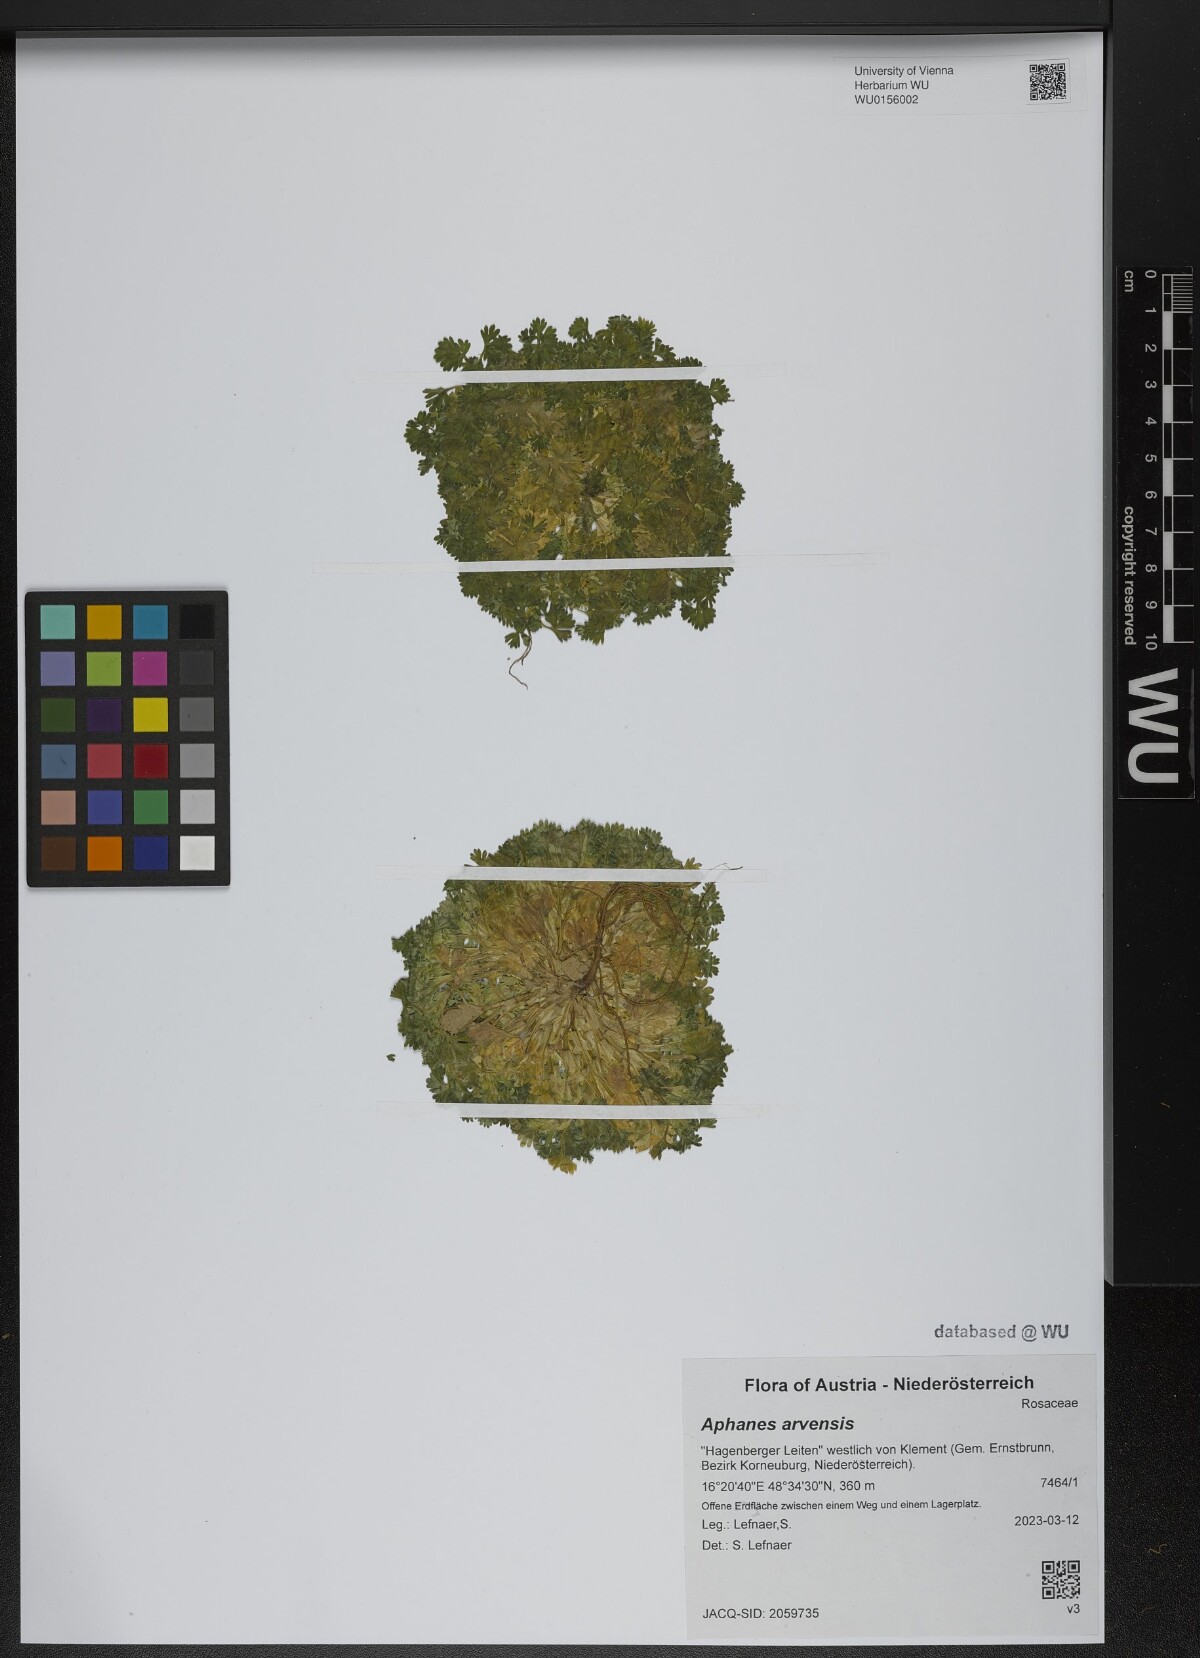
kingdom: Plantae
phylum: Tracheophyta
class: Magnoliopsida
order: Rosales
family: Rosaceae
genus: Aphanes
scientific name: Aphanes arvensis
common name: Parsley-piert
